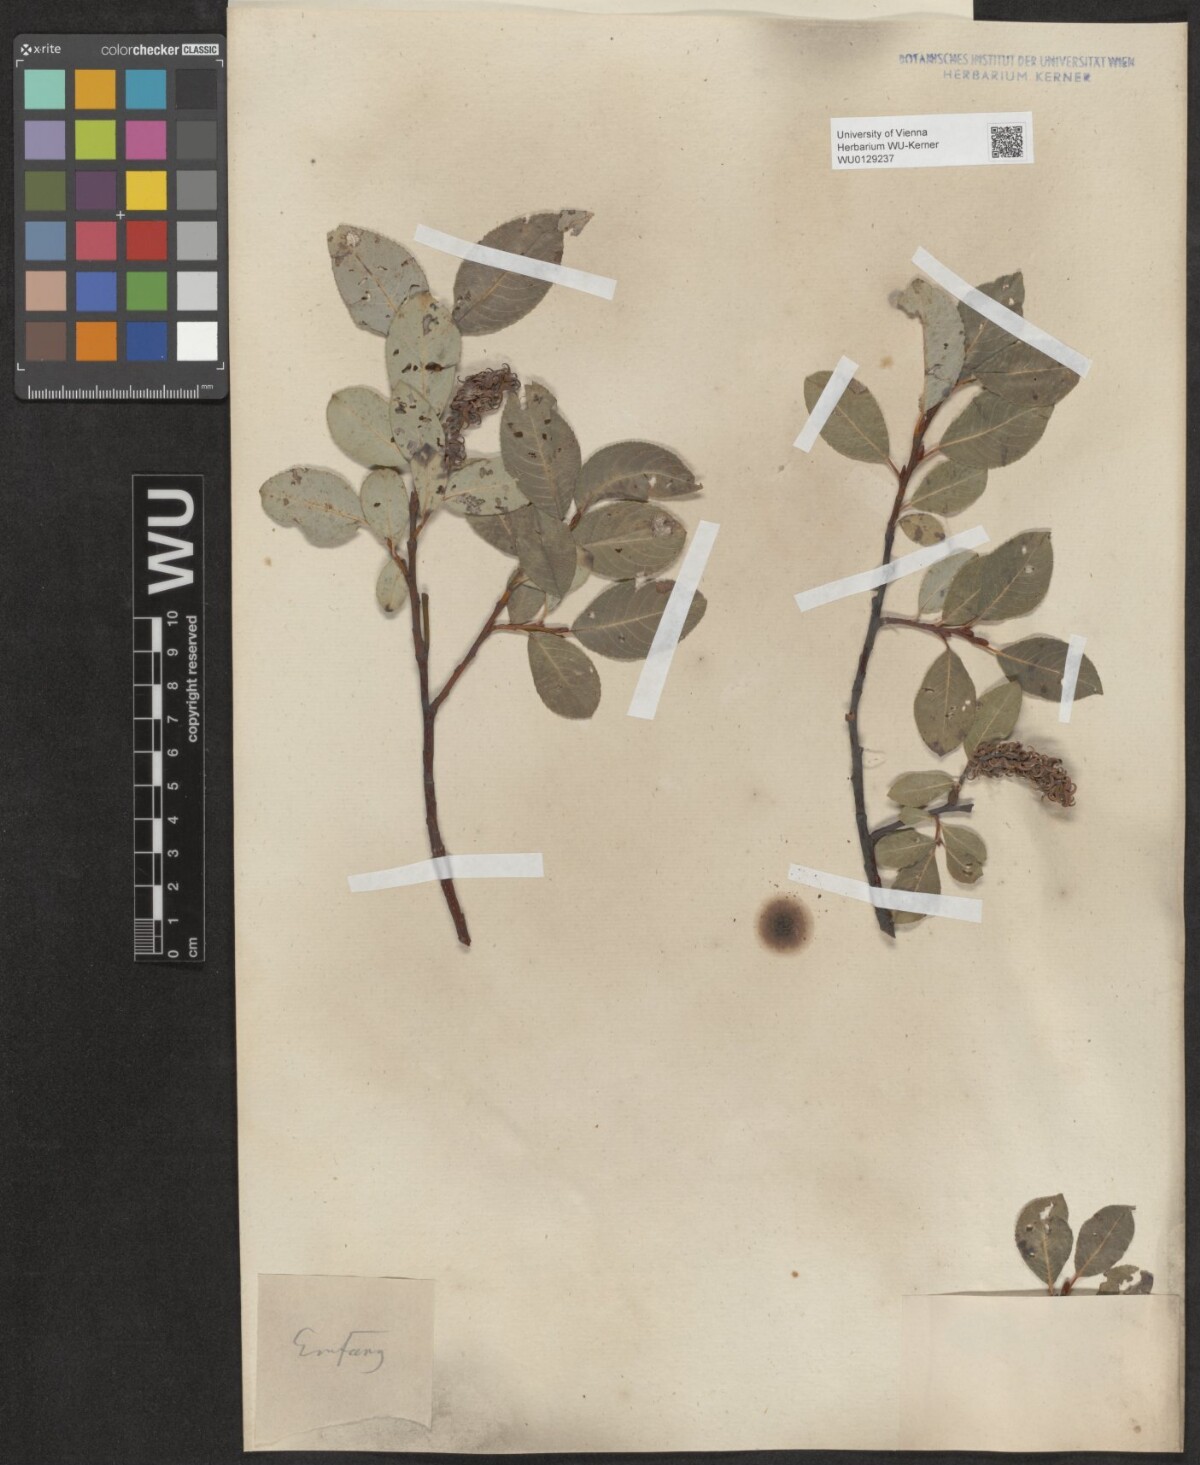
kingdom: Plantae
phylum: Tracheophyta
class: Magnoliopsida
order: Malpighiales
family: Salicaceae
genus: Salix
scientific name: Salix glabra
